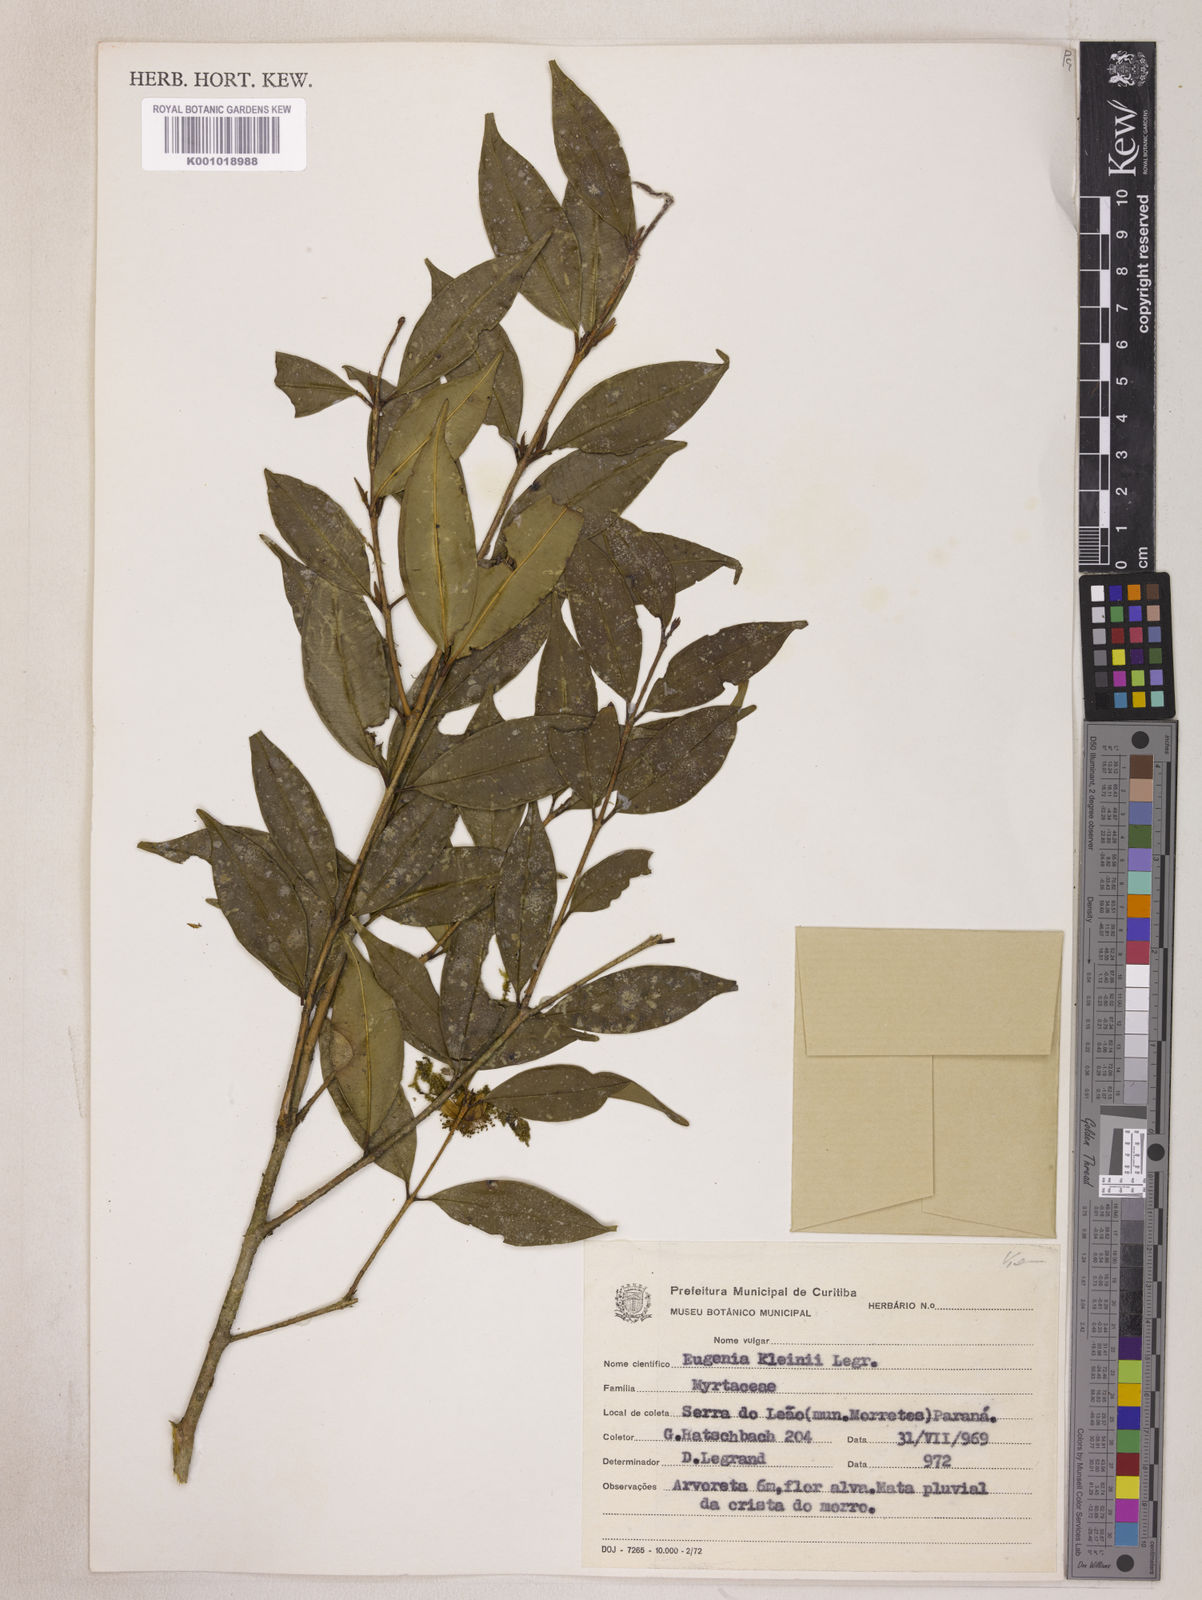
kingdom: Plantae
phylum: Tracheophyta
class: Magnoliopsida
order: Myrtales
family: Myrtaceae
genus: Eugenia
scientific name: Eugenia kleinii
